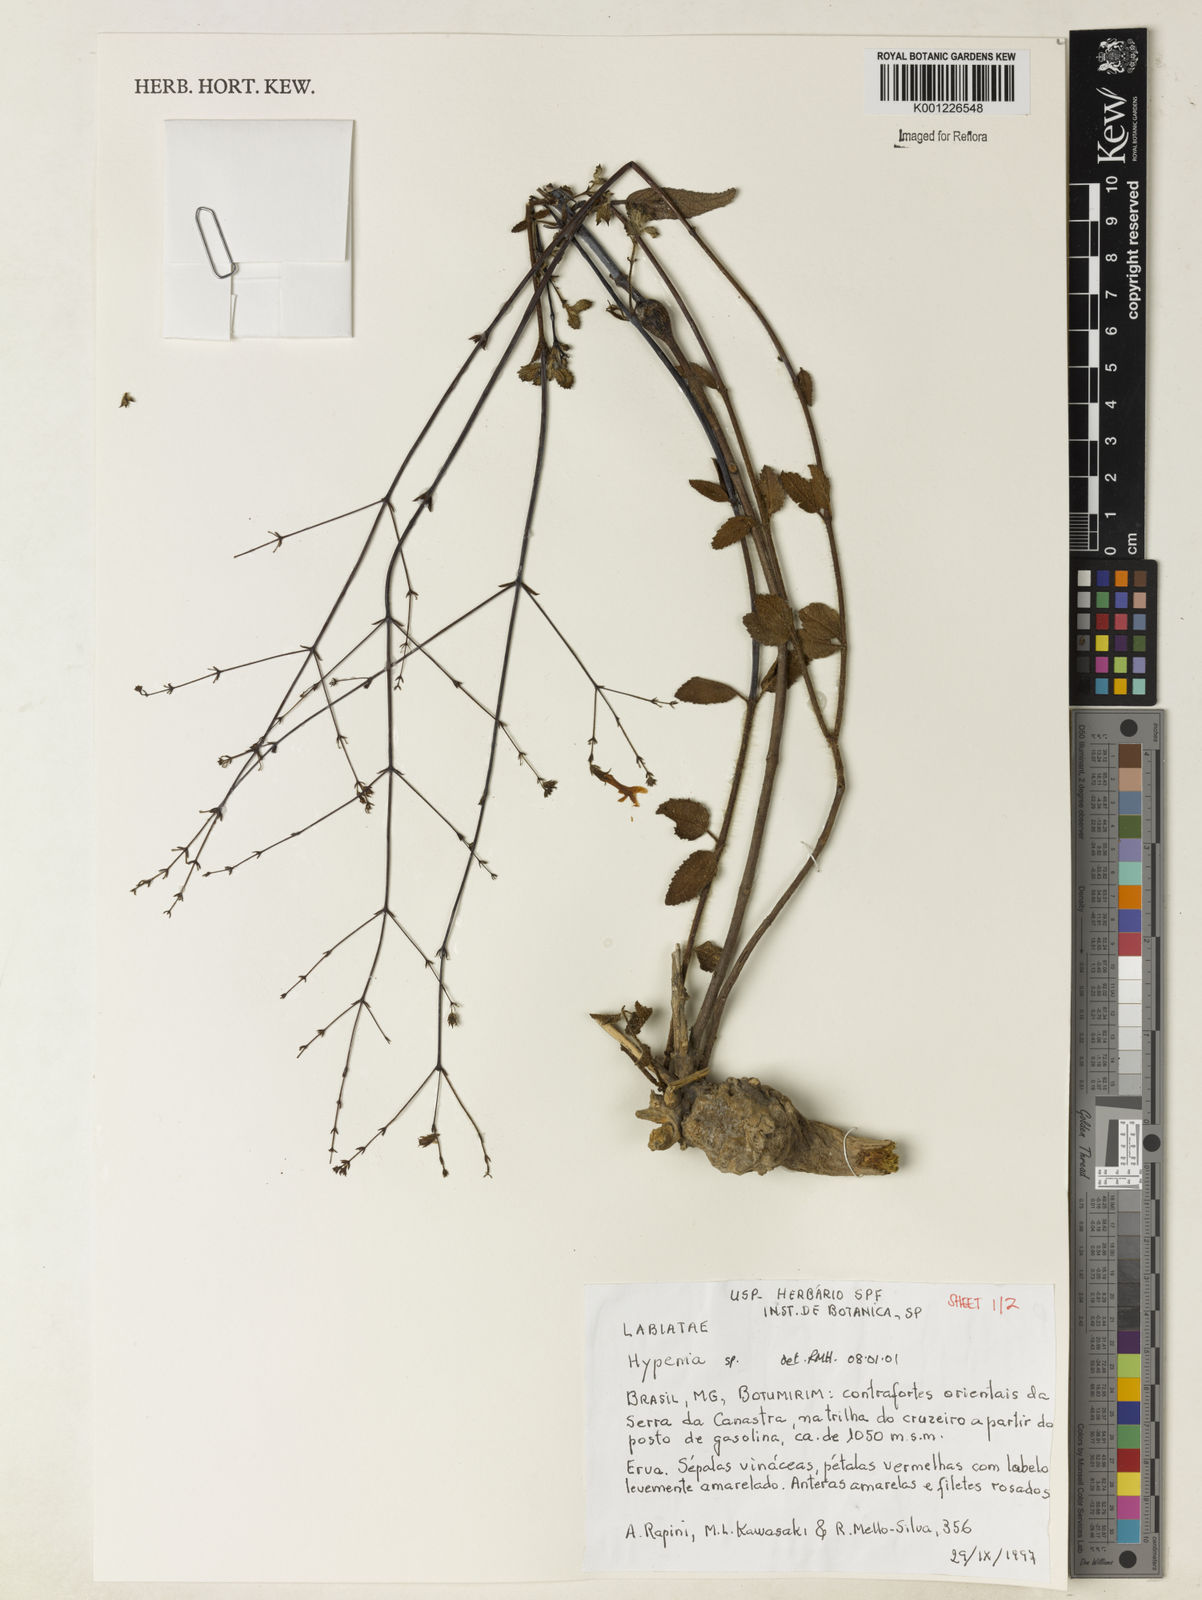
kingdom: Plantae
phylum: Tracheophyta
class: Magnoliopsida
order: Lamiales
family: Lamiaceae
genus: Hypenia
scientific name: Hypenia
